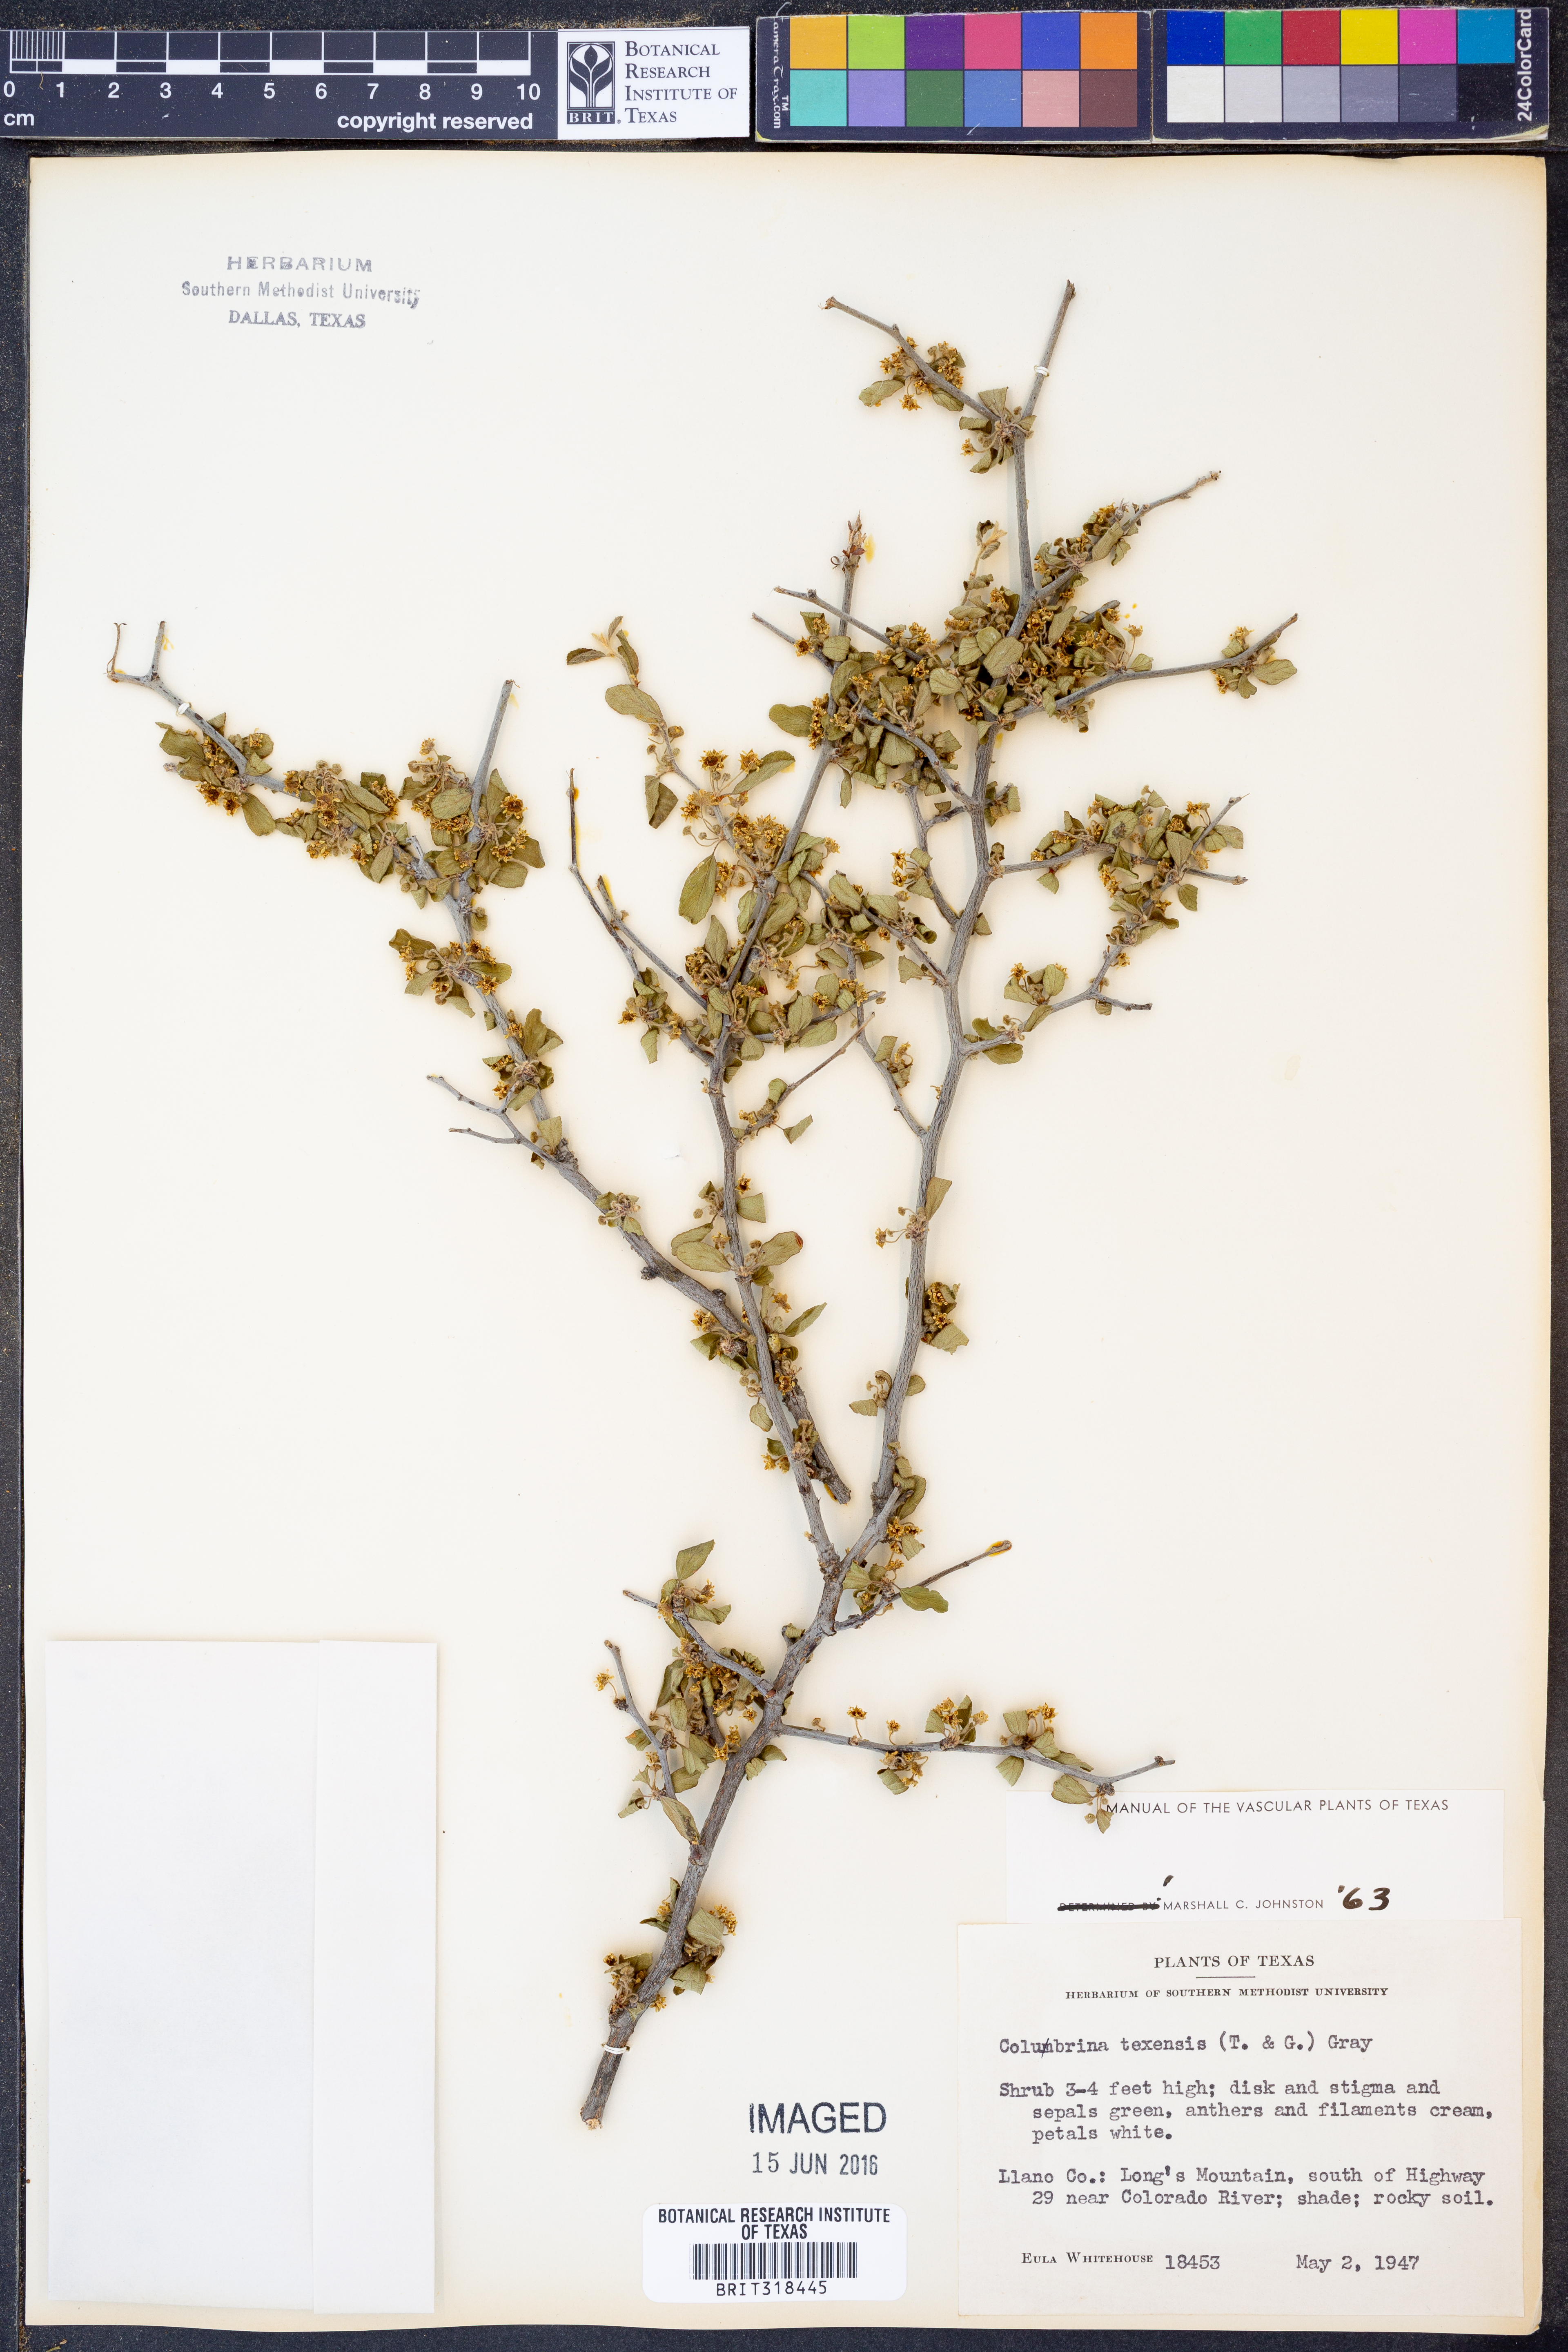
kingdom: Plantae
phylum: Tracheophyta
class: Magnoliopsida
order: Rosales
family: Rhamnaceae
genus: Colubrina
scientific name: Colubrina texensis
